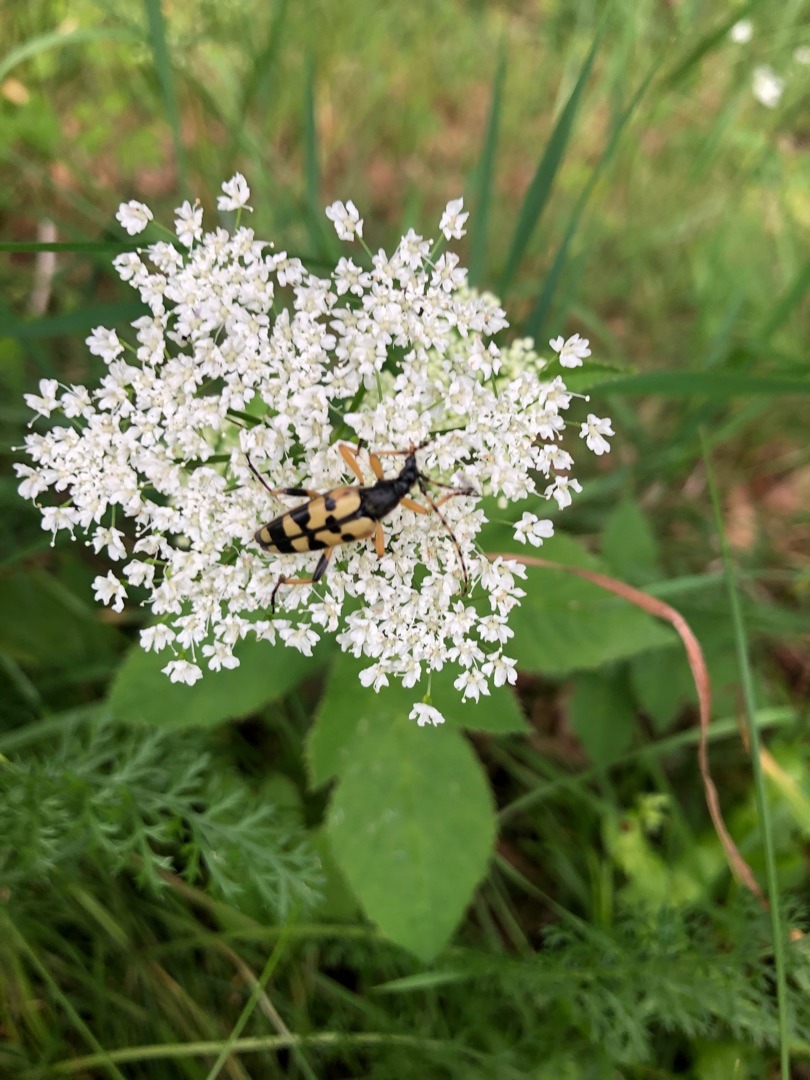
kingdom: Animalia
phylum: Arthropoda
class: Insecta
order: Coleoptera
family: Cerambycidae
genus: Rutpela
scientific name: Rutpela maculata
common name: Sydlig blomsterbuk
